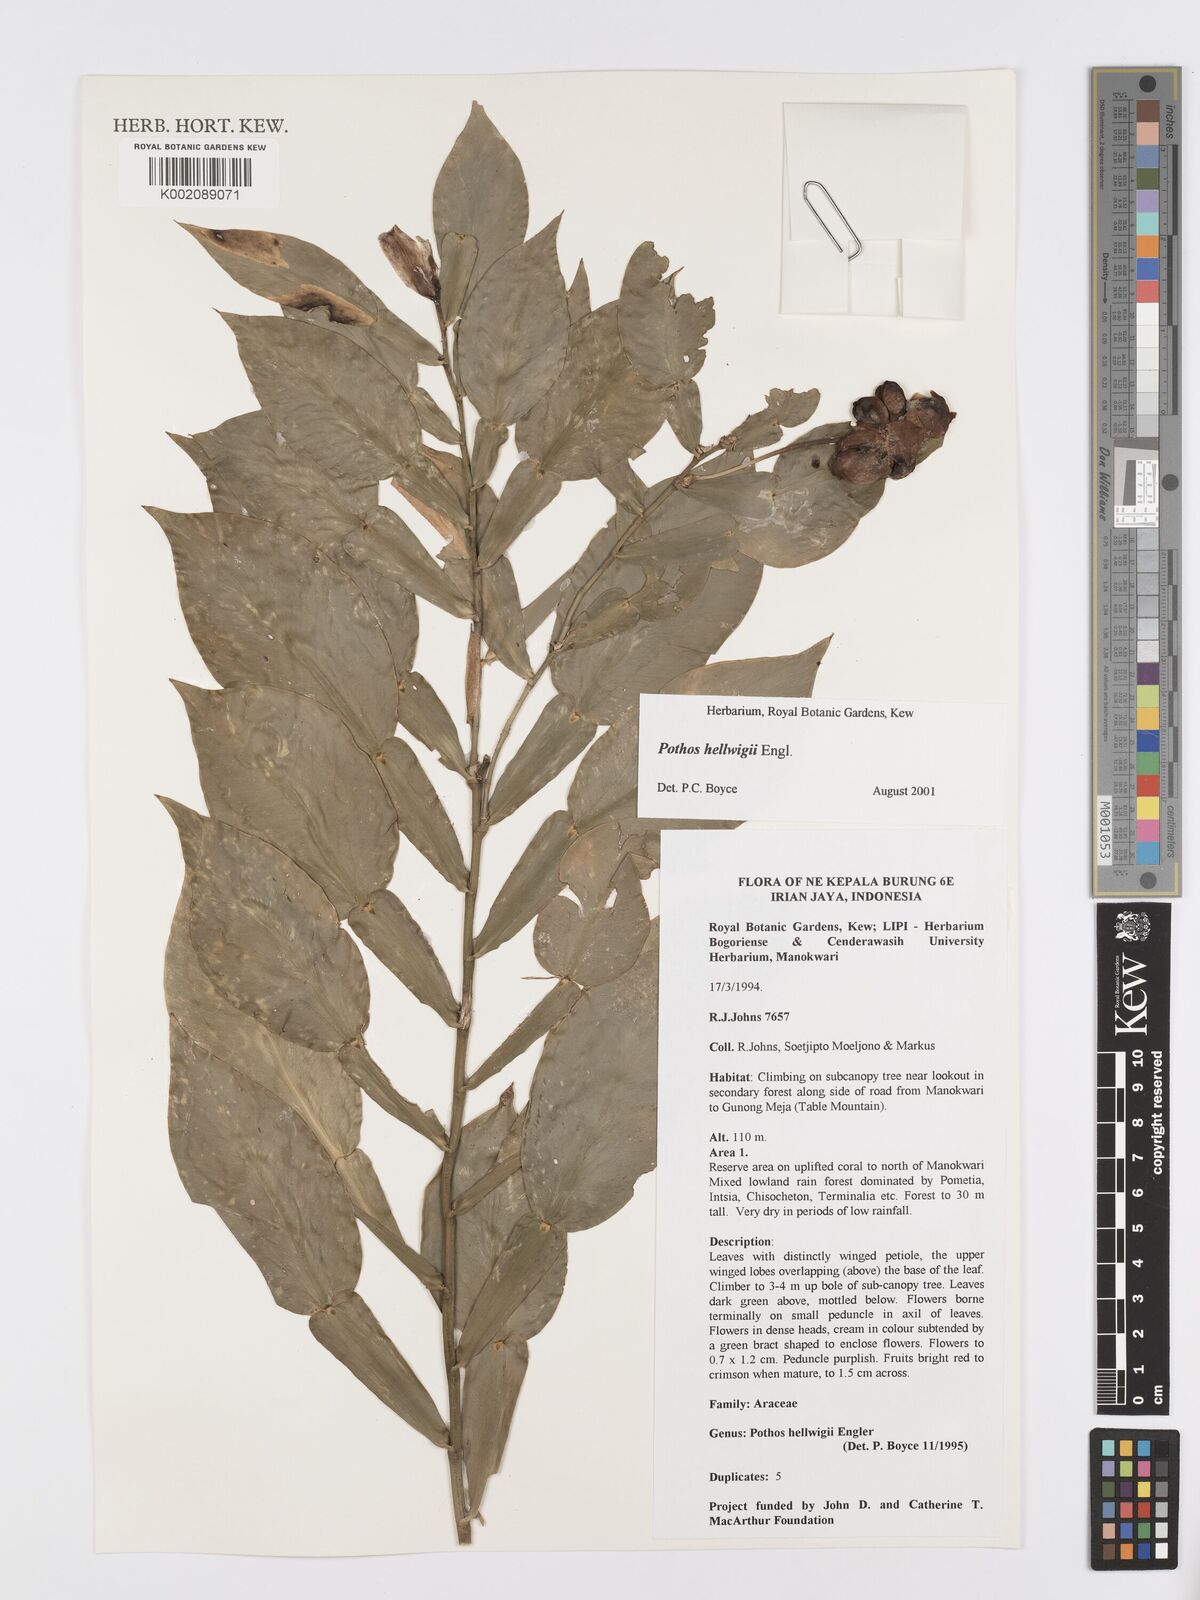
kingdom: Plantae
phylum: Tracheophyta
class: Liliopsida
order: Alismatales
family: Araceae
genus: Pothos
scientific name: Pothos hellwigii
